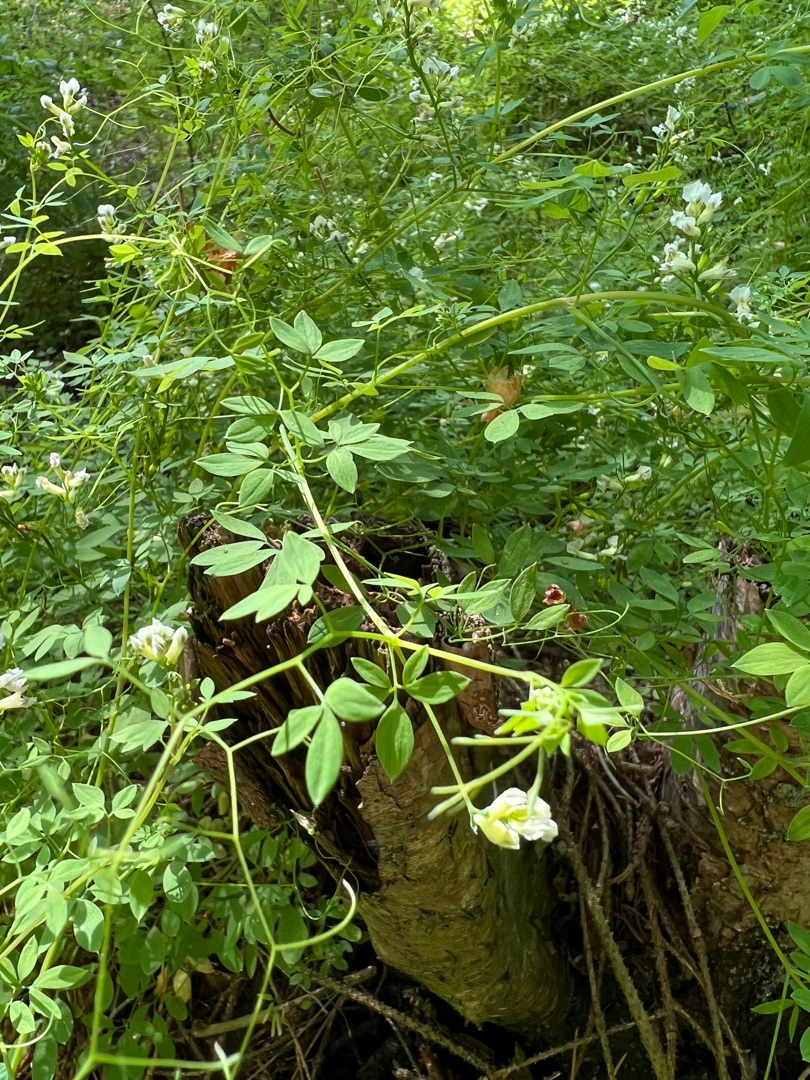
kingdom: Plantae
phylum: Tracheophyta
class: Magnoliopsida
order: Ranunculales
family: Papaveraceae
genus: Ceratocapnos
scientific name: Ceratocapnos claviculata
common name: Klatrende lærkespore
